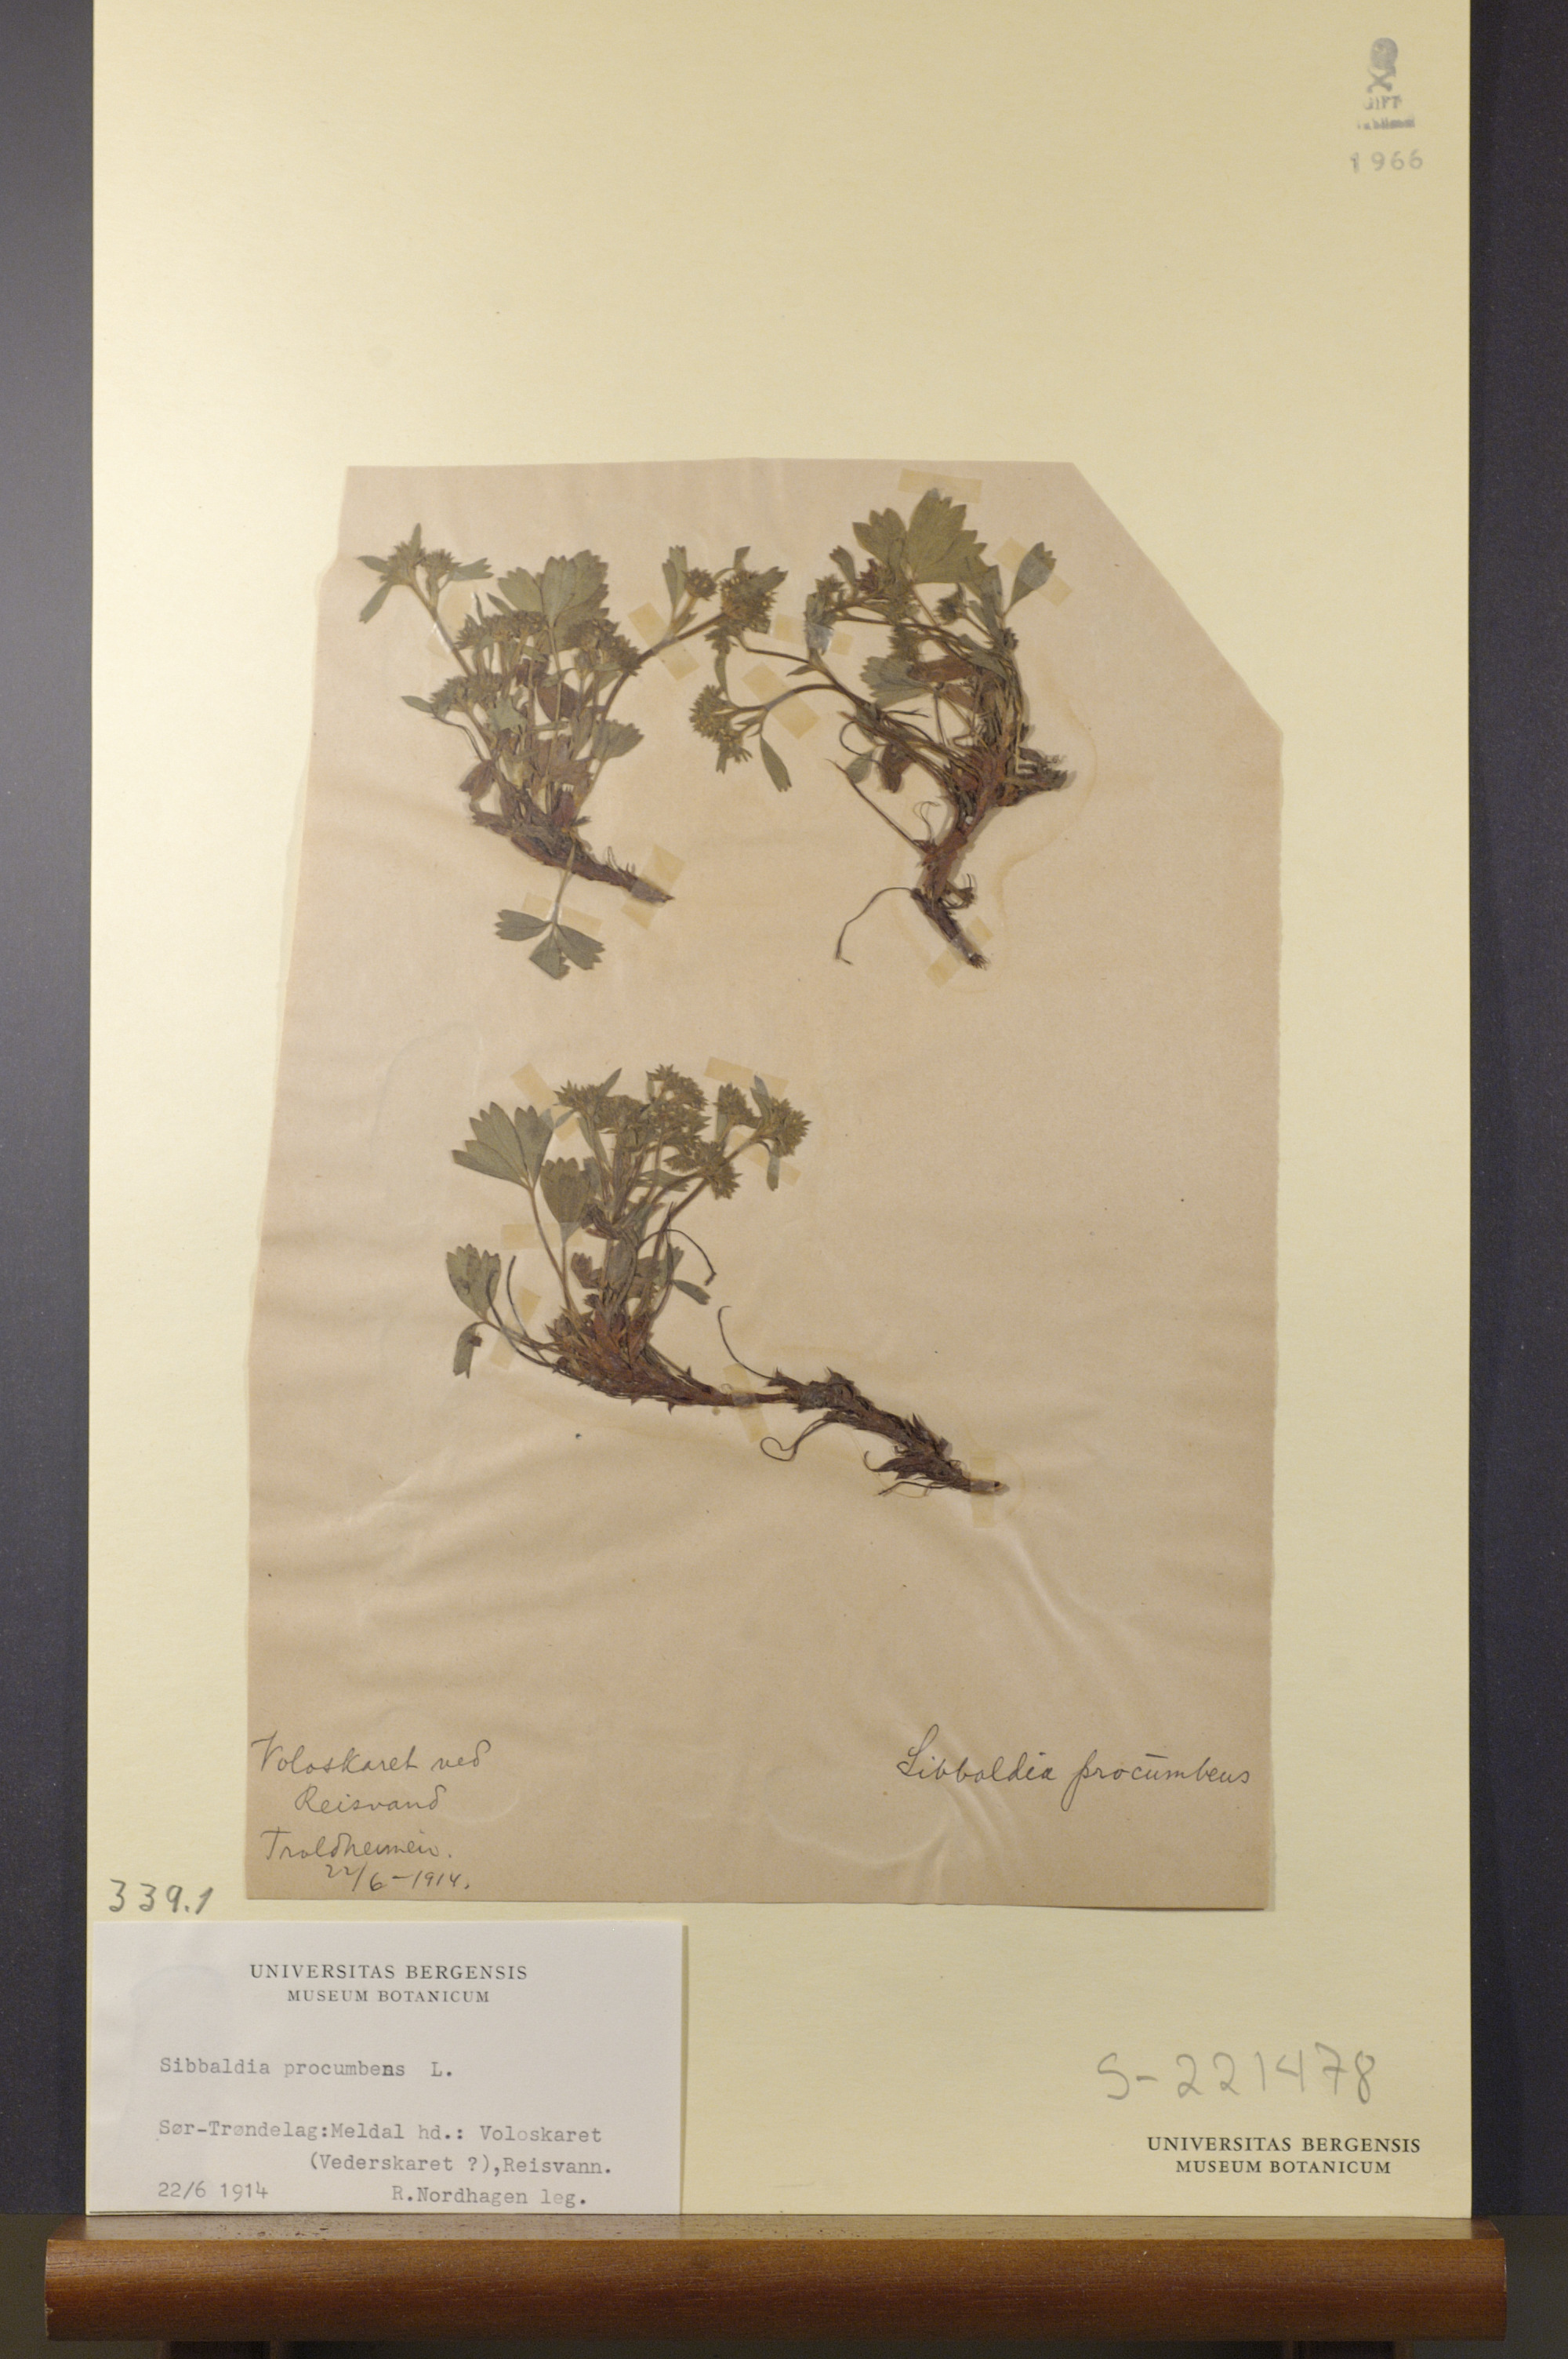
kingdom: Plantae
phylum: Tracheophyta
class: Magnoliopsida
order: Rosales
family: Rosaceae
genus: Sibbaldia
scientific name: Sibbaldia procumbens
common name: Creeping sibbaldia
